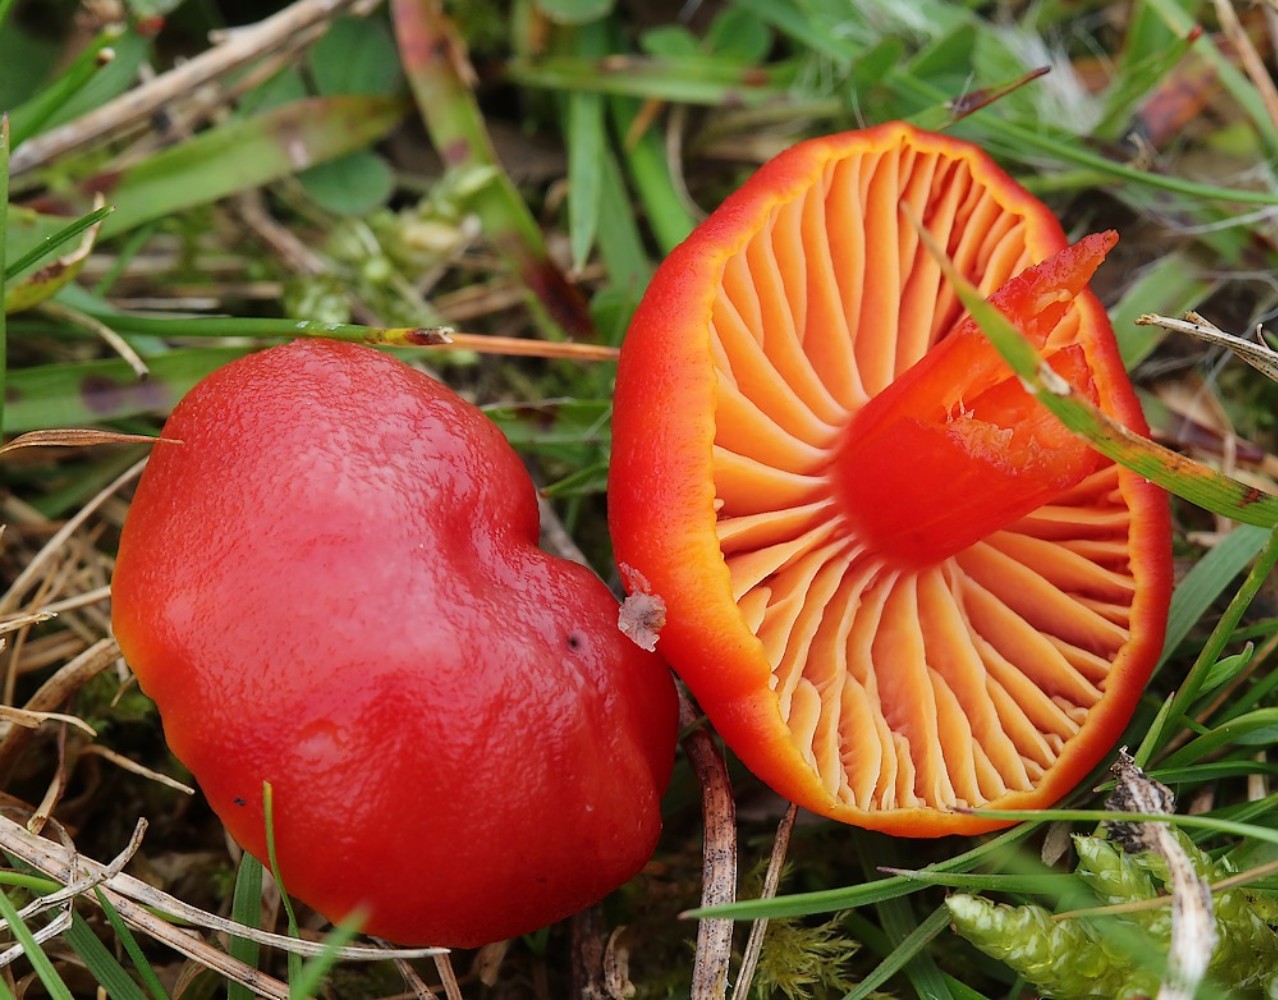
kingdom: Fungi
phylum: Basidiomycota
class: Agaricomycetes
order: Agaricales
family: Hygrophoraceae
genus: Hygrocybe
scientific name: Hygrocybe coccinea
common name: cinnober-vokshat
